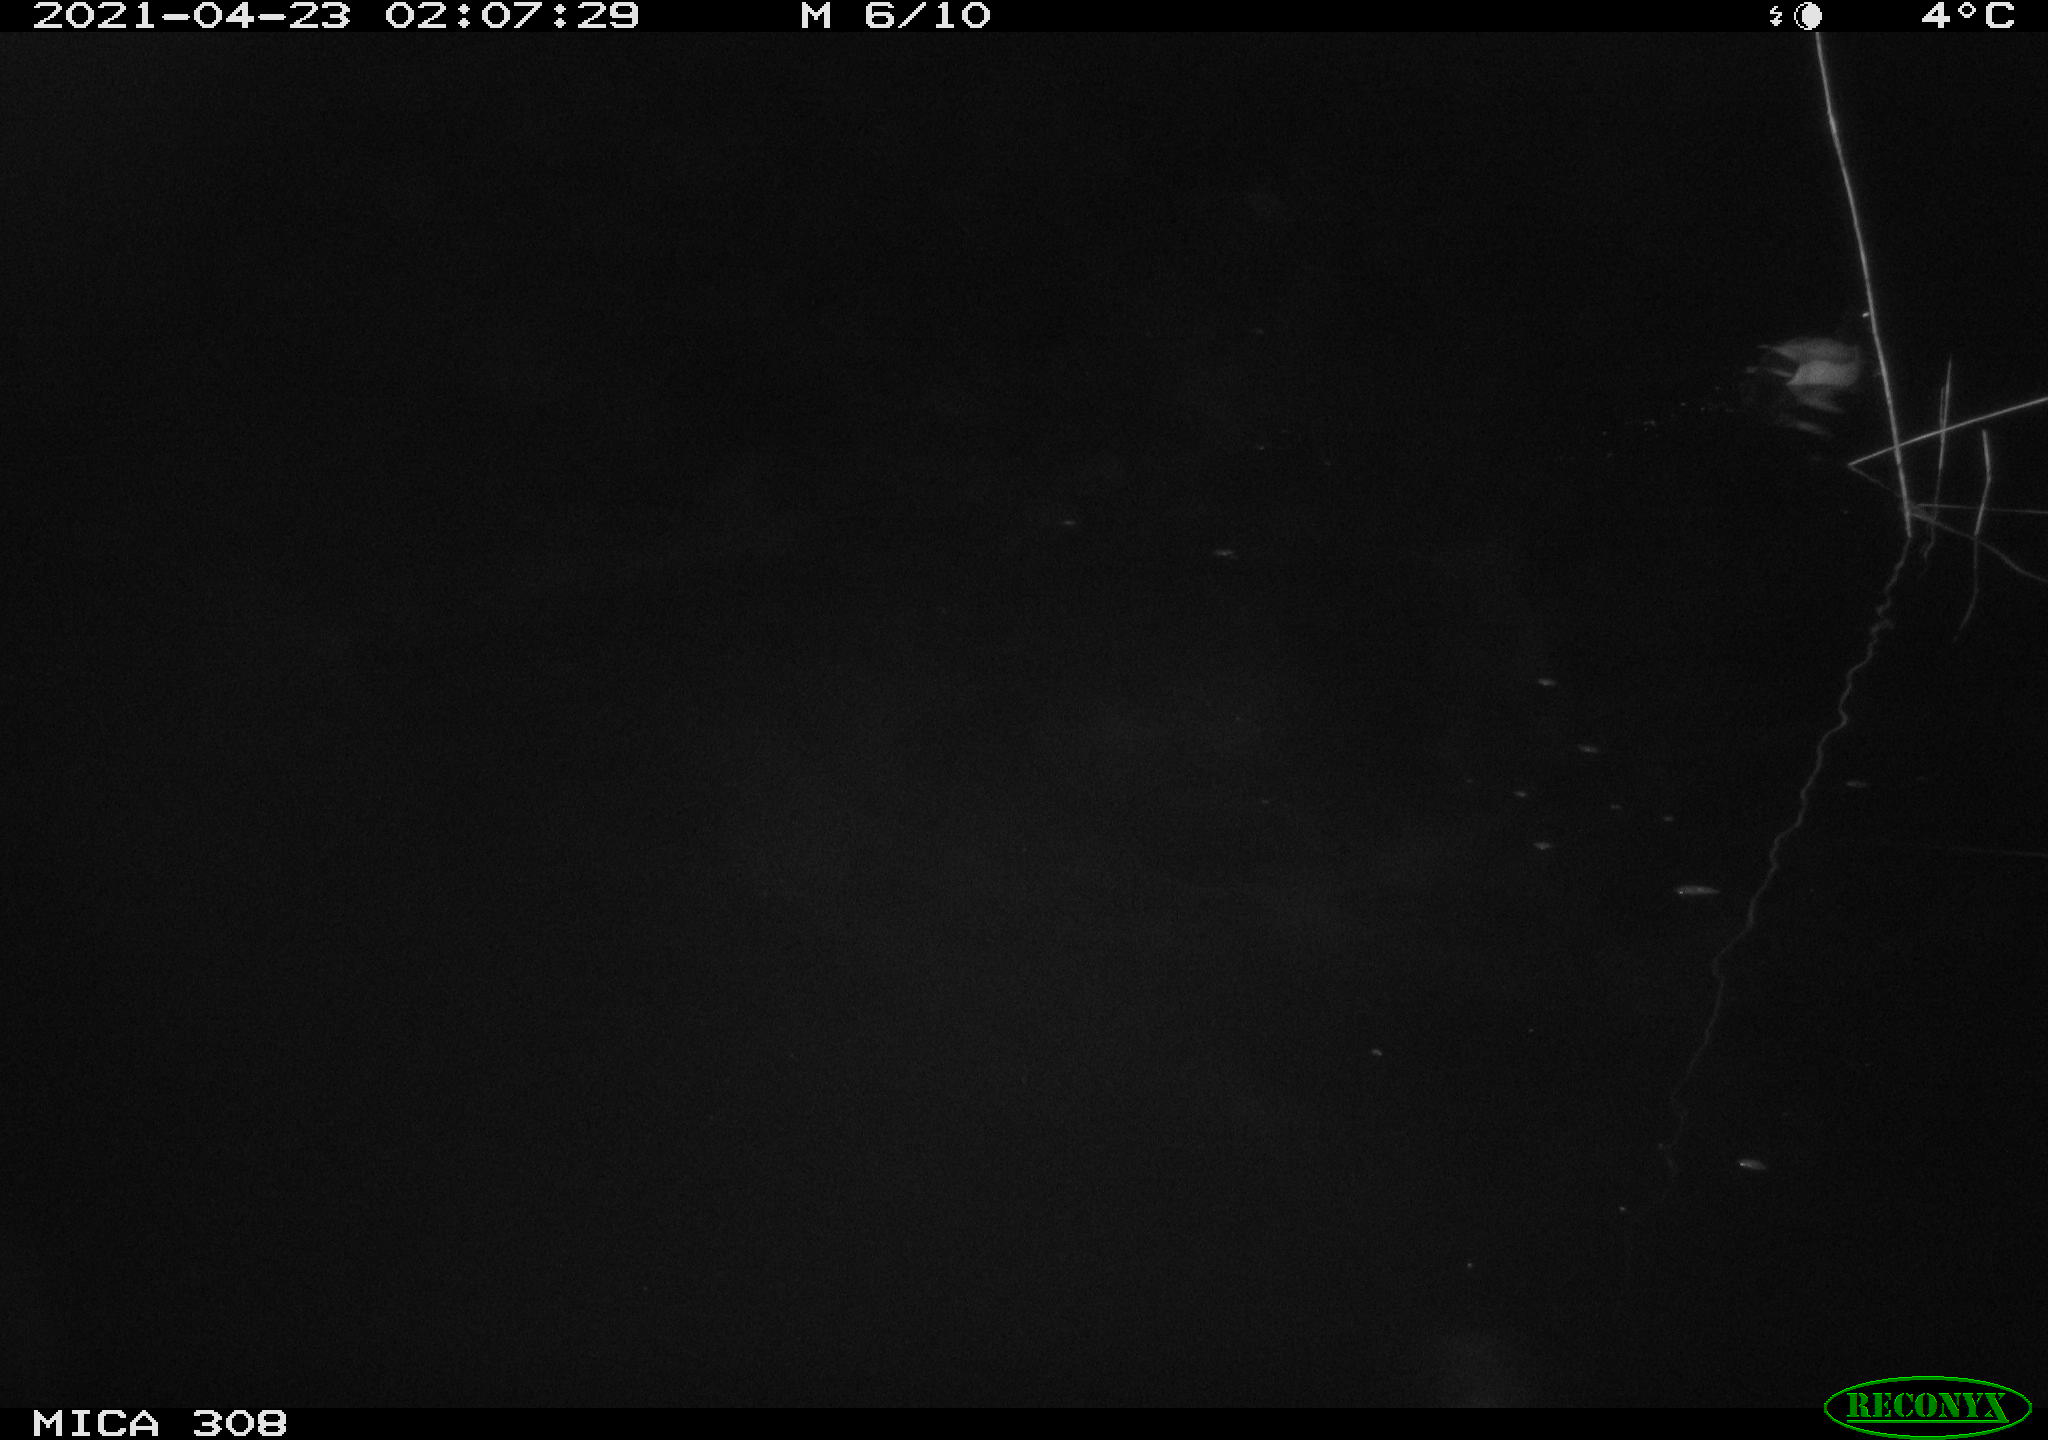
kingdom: Animalia
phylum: Chordata
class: Aves
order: Anseriformes
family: Anatidae
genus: Anas
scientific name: Anas platyrhynchos
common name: Mallard
